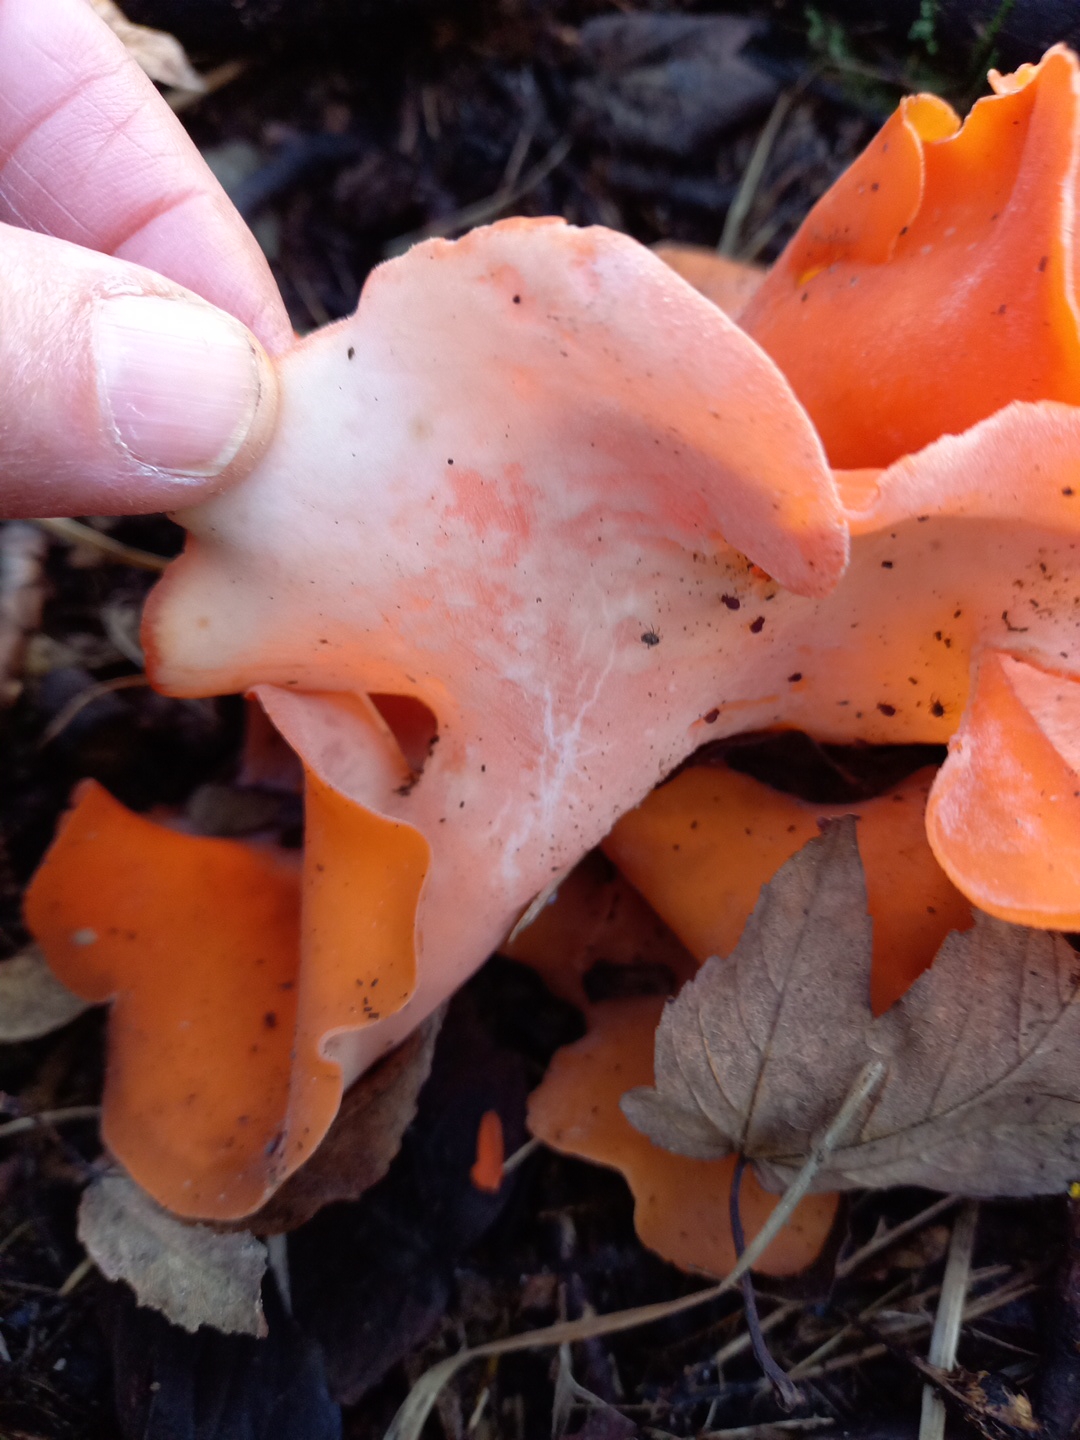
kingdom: Fungi
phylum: Ascomycota
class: Pezizomycetes
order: Pezizales
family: Pyronemataceae
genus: Aleuria
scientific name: Aleuria aurantia
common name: almindelig orangebæger
